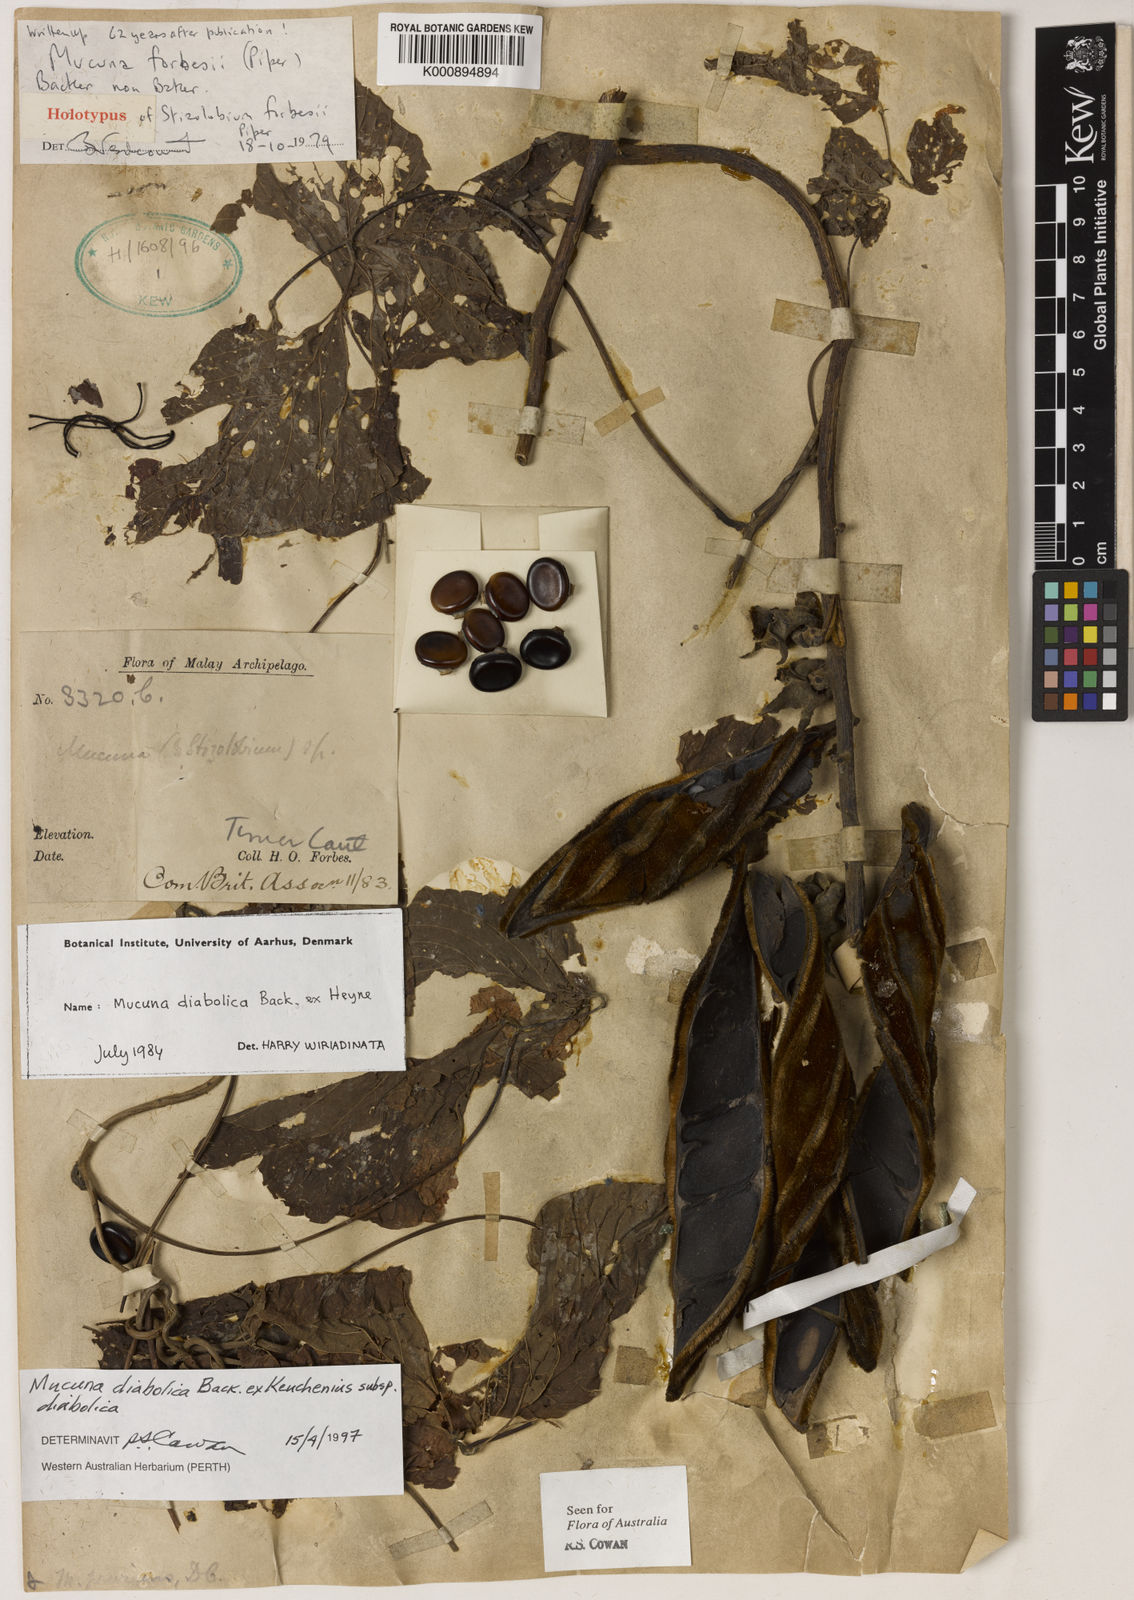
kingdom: Plantae
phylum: Tracheophyta
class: Magnoliopsida
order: Fabales
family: Fabaceae
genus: Mucuna
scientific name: Mucuna diabolica
